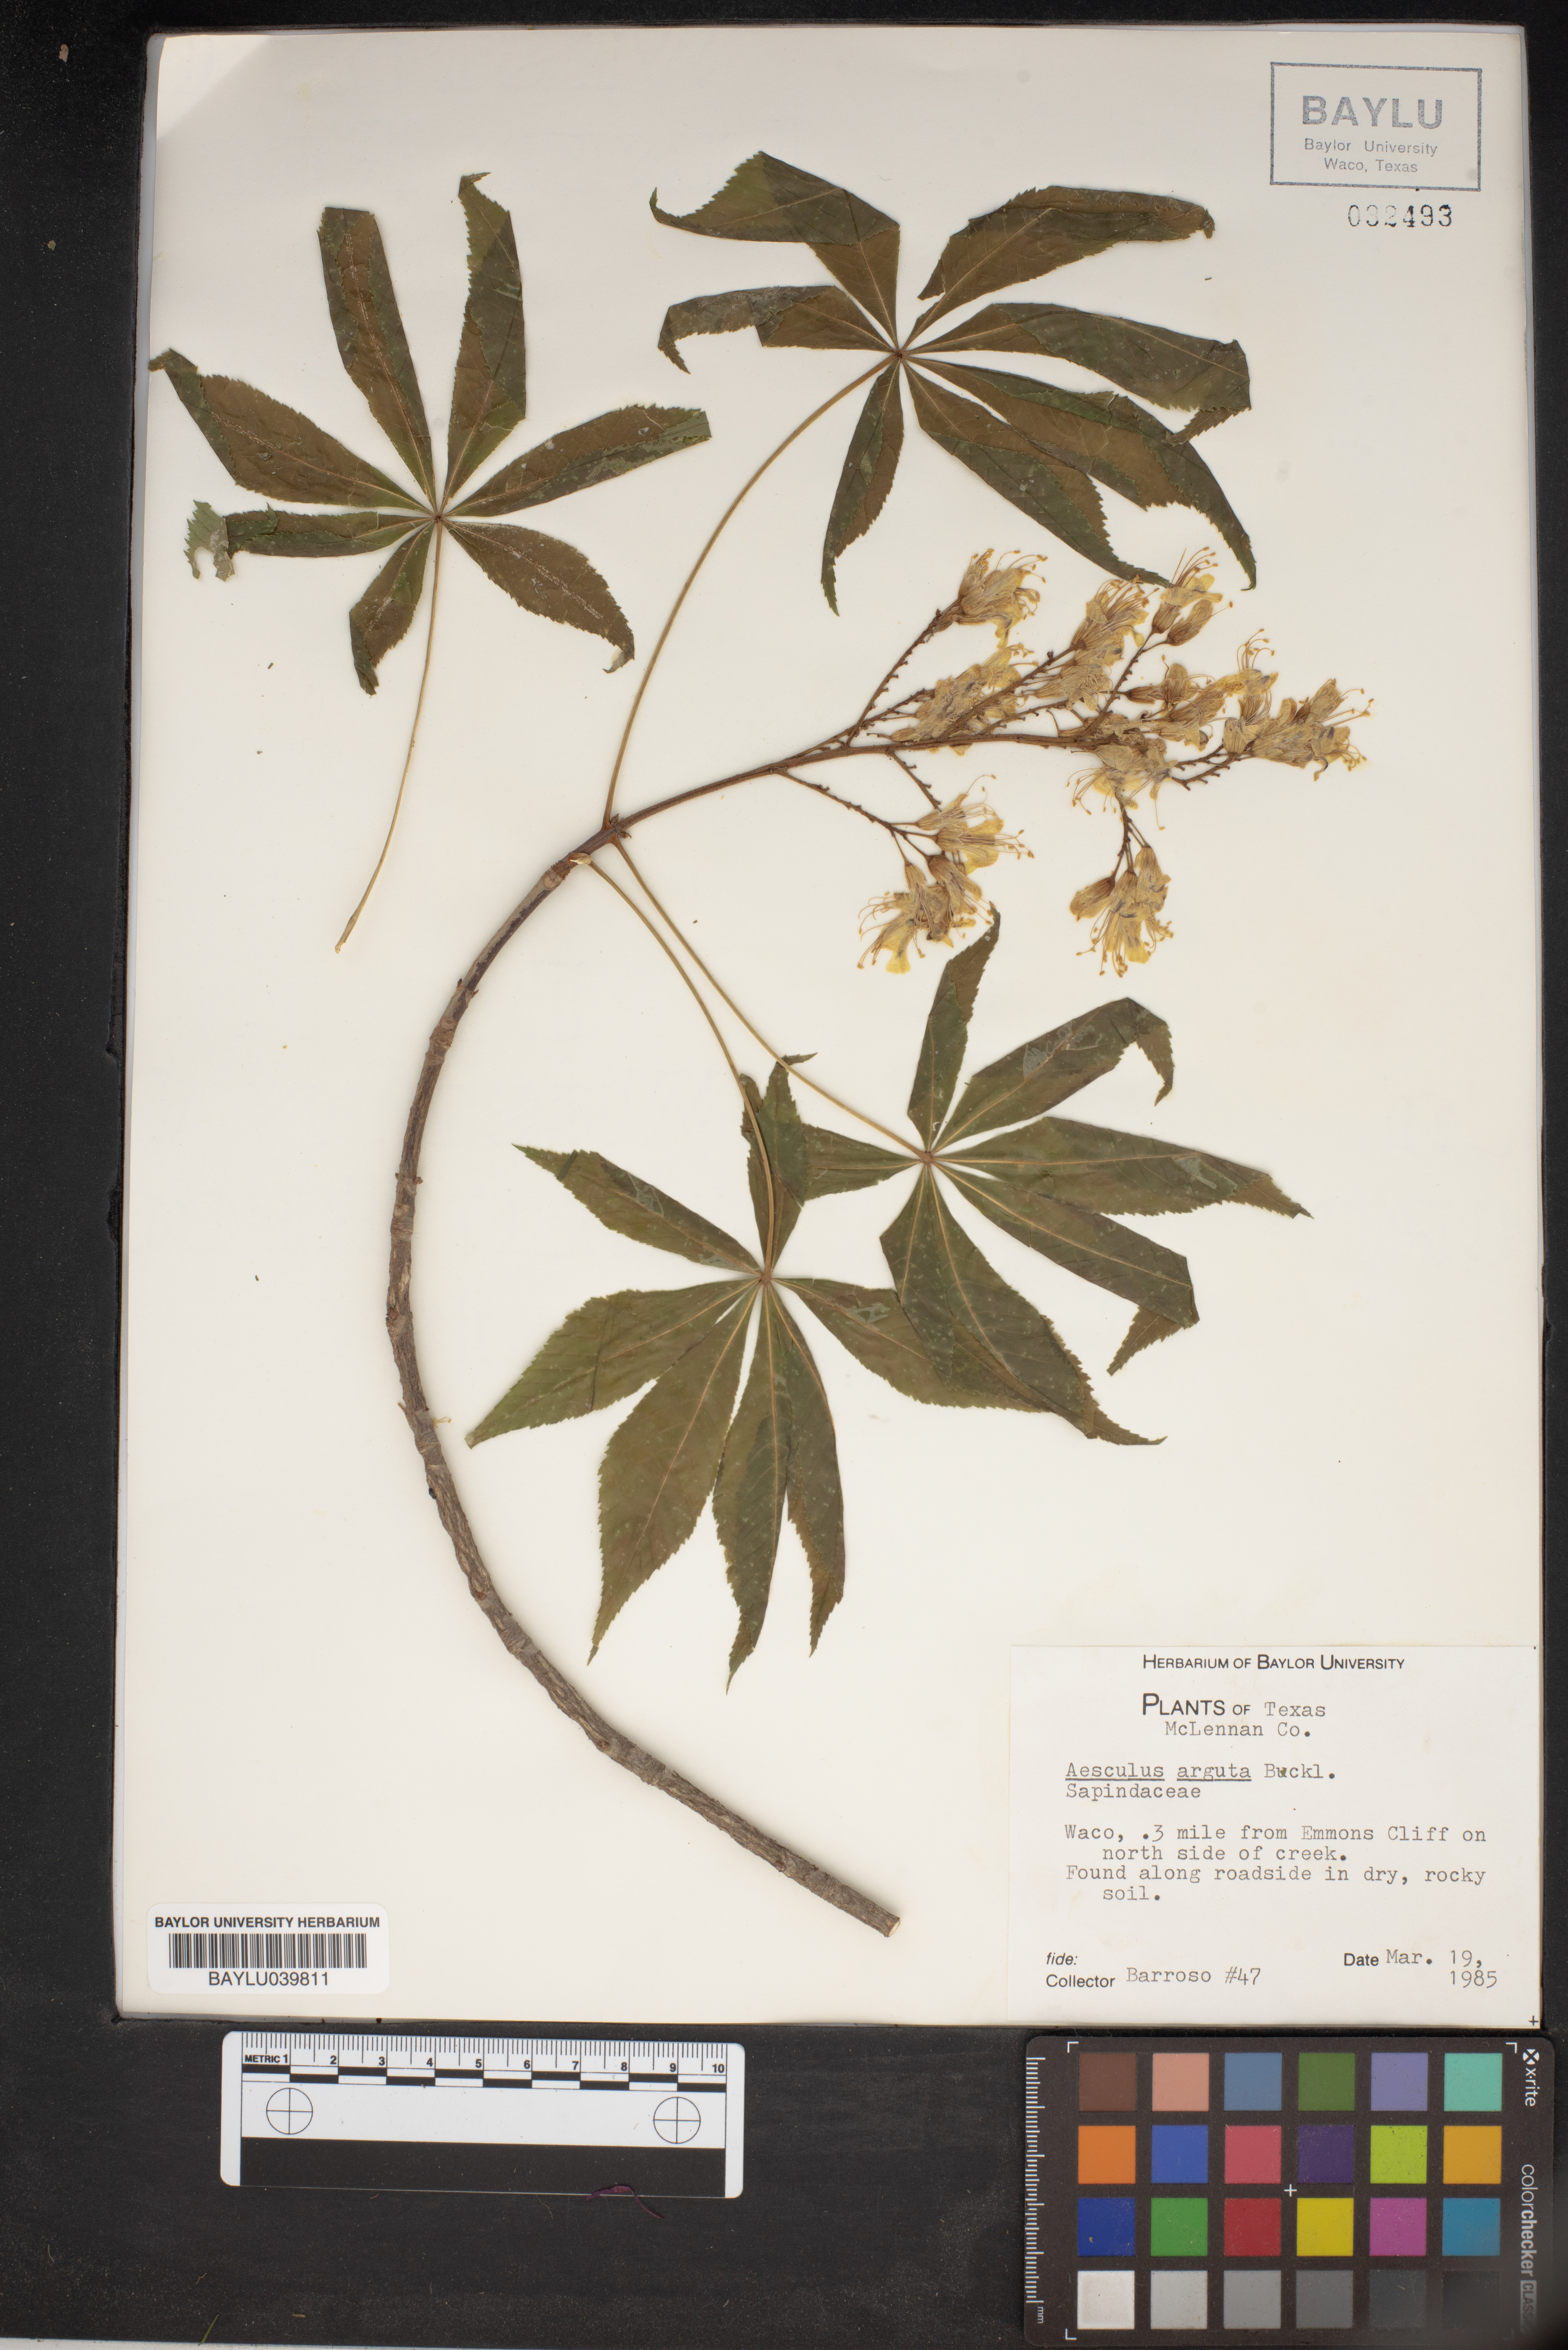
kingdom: Plantae
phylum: Tracheophyta
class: Magnoliopsida
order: Sapindales
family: Sapindaceae
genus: Aesculus
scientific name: Aesculus glabra
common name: Ohio buckeye
